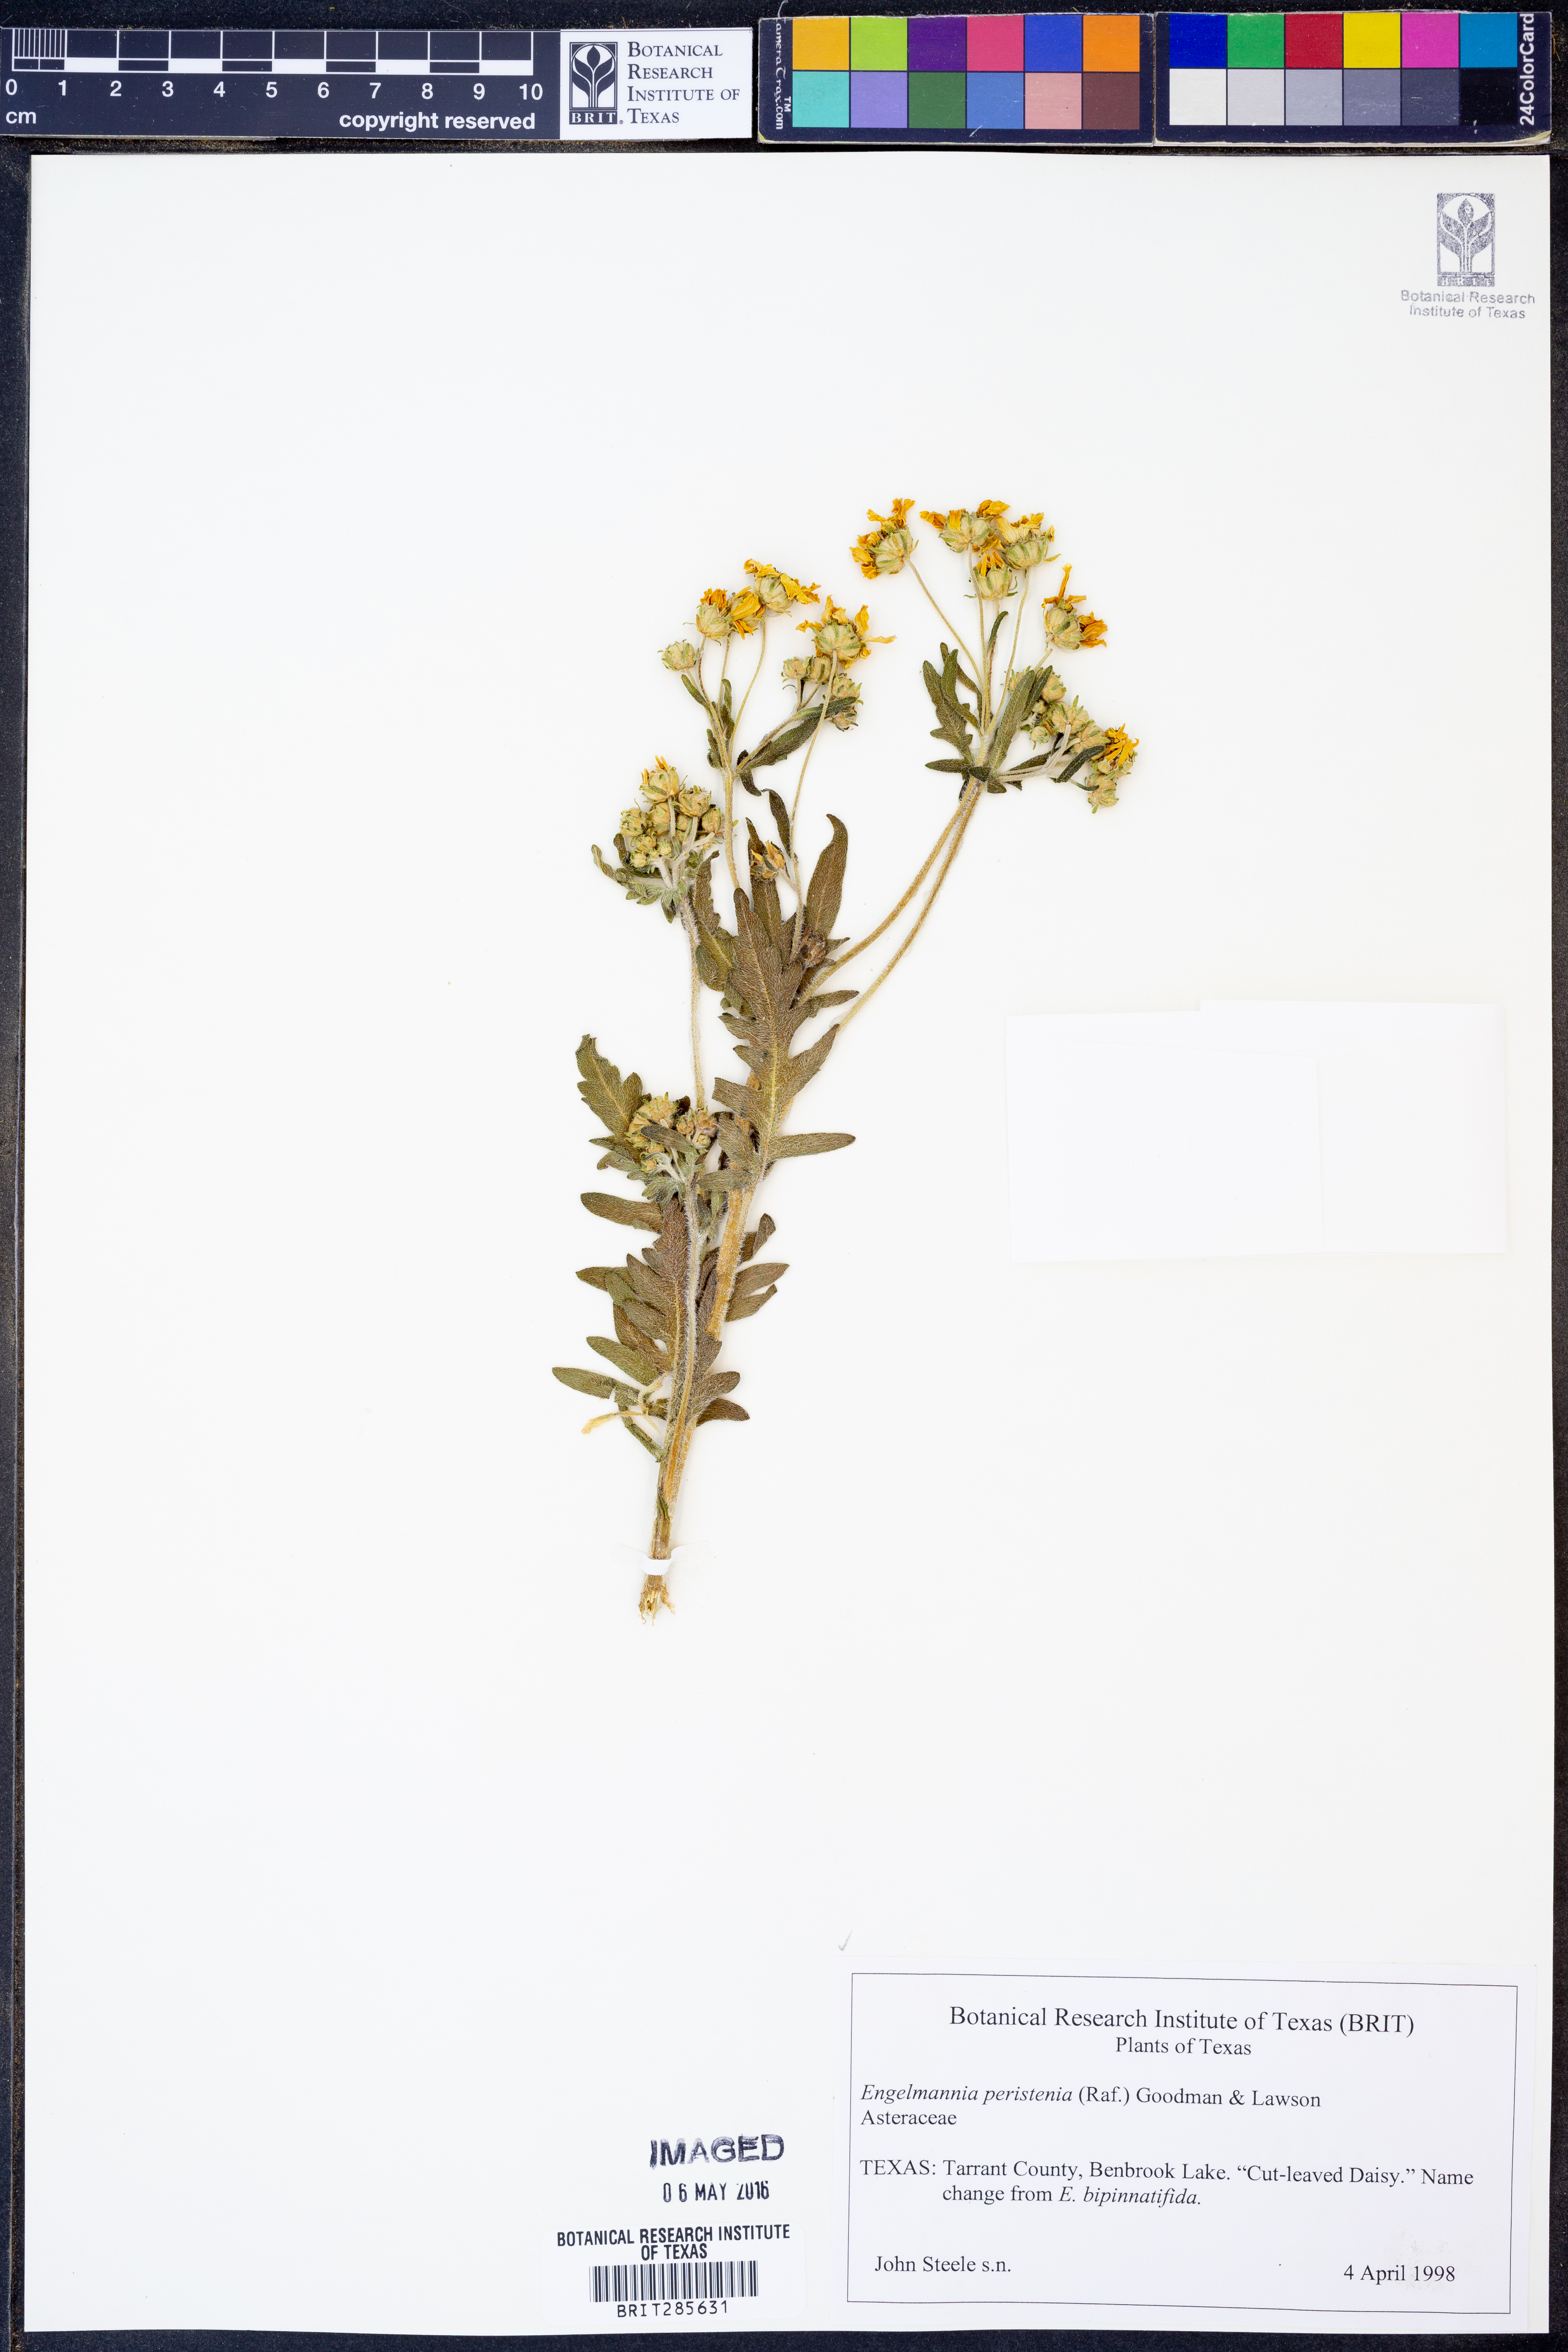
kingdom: Plantae
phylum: Tracheophyta
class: Magnoliopsida
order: Asterales
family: Asteraceae
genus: Engelmannia
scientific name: Engelmannia peristenia
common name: Engelmann's daisy
